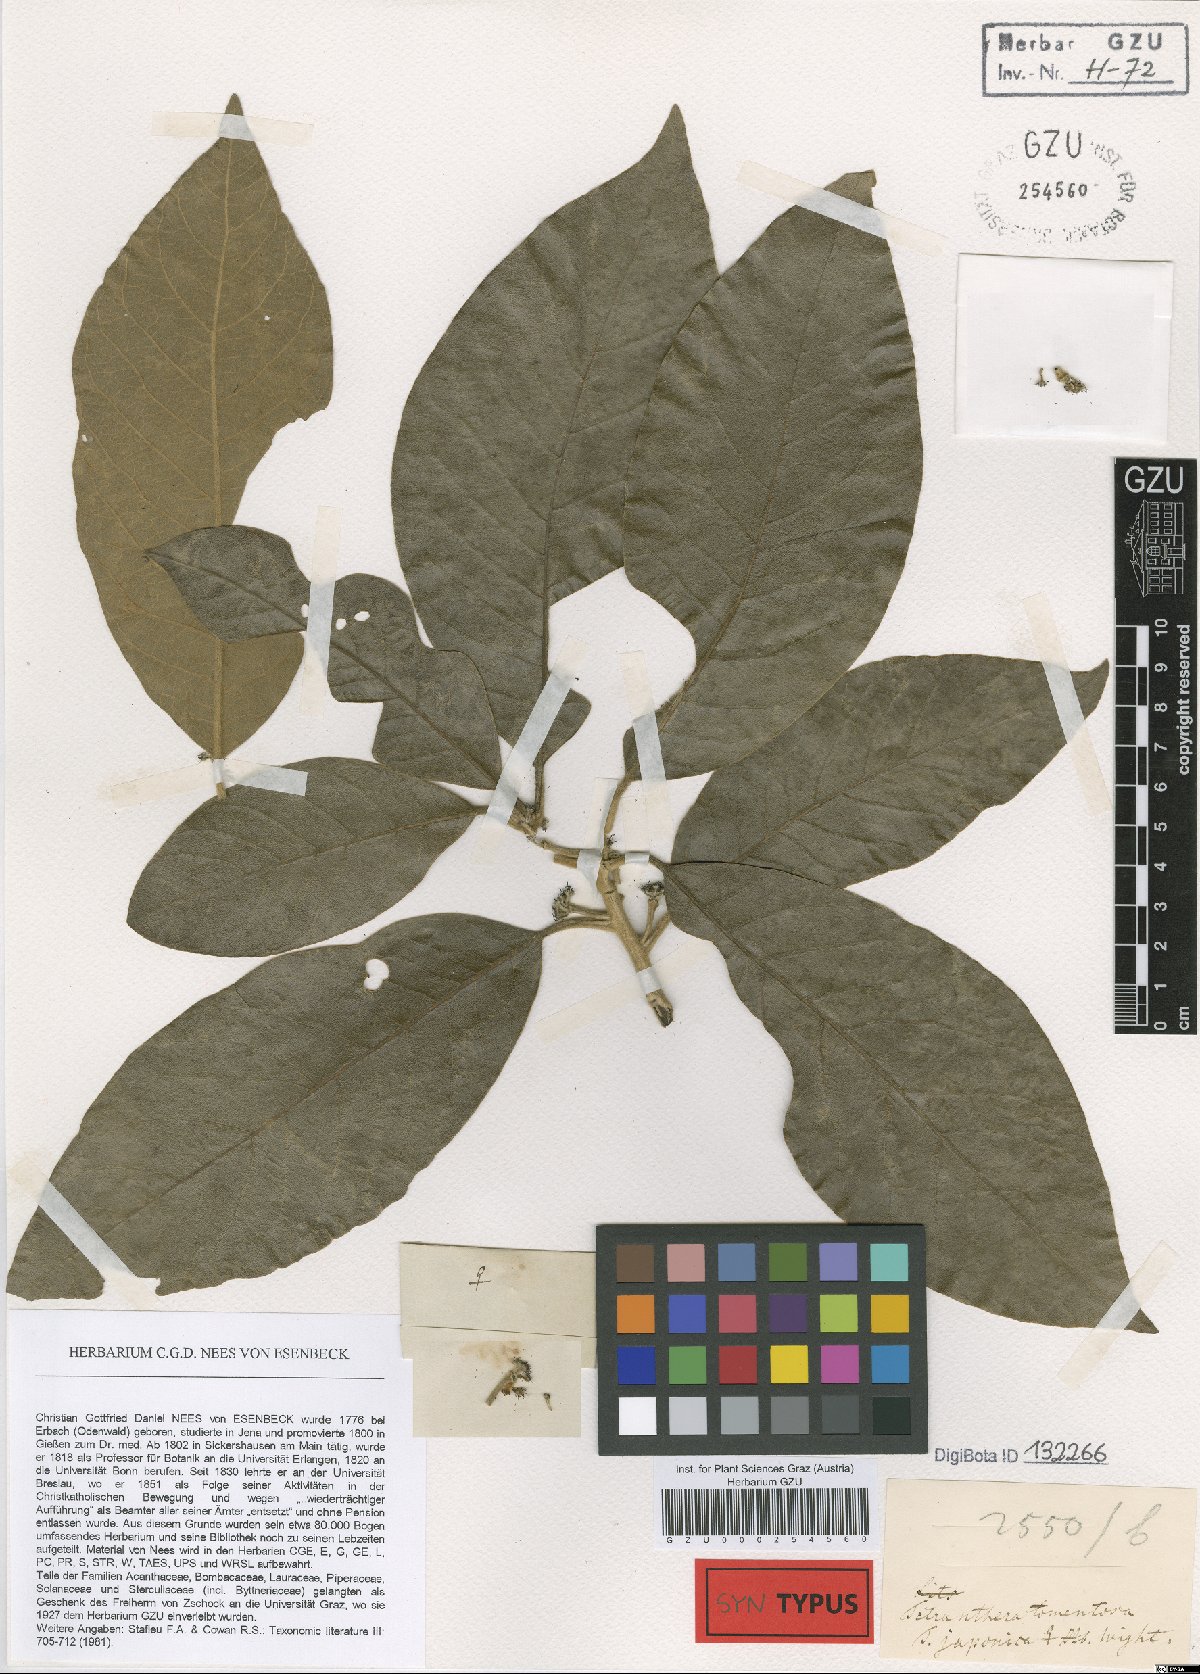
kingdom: Plantae
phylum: Tracheophyta
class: Magnoliopsida
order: Laurales
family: Lauraceae
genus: Litsea
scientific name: Litsea glutinosa
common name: Indian-laurel
